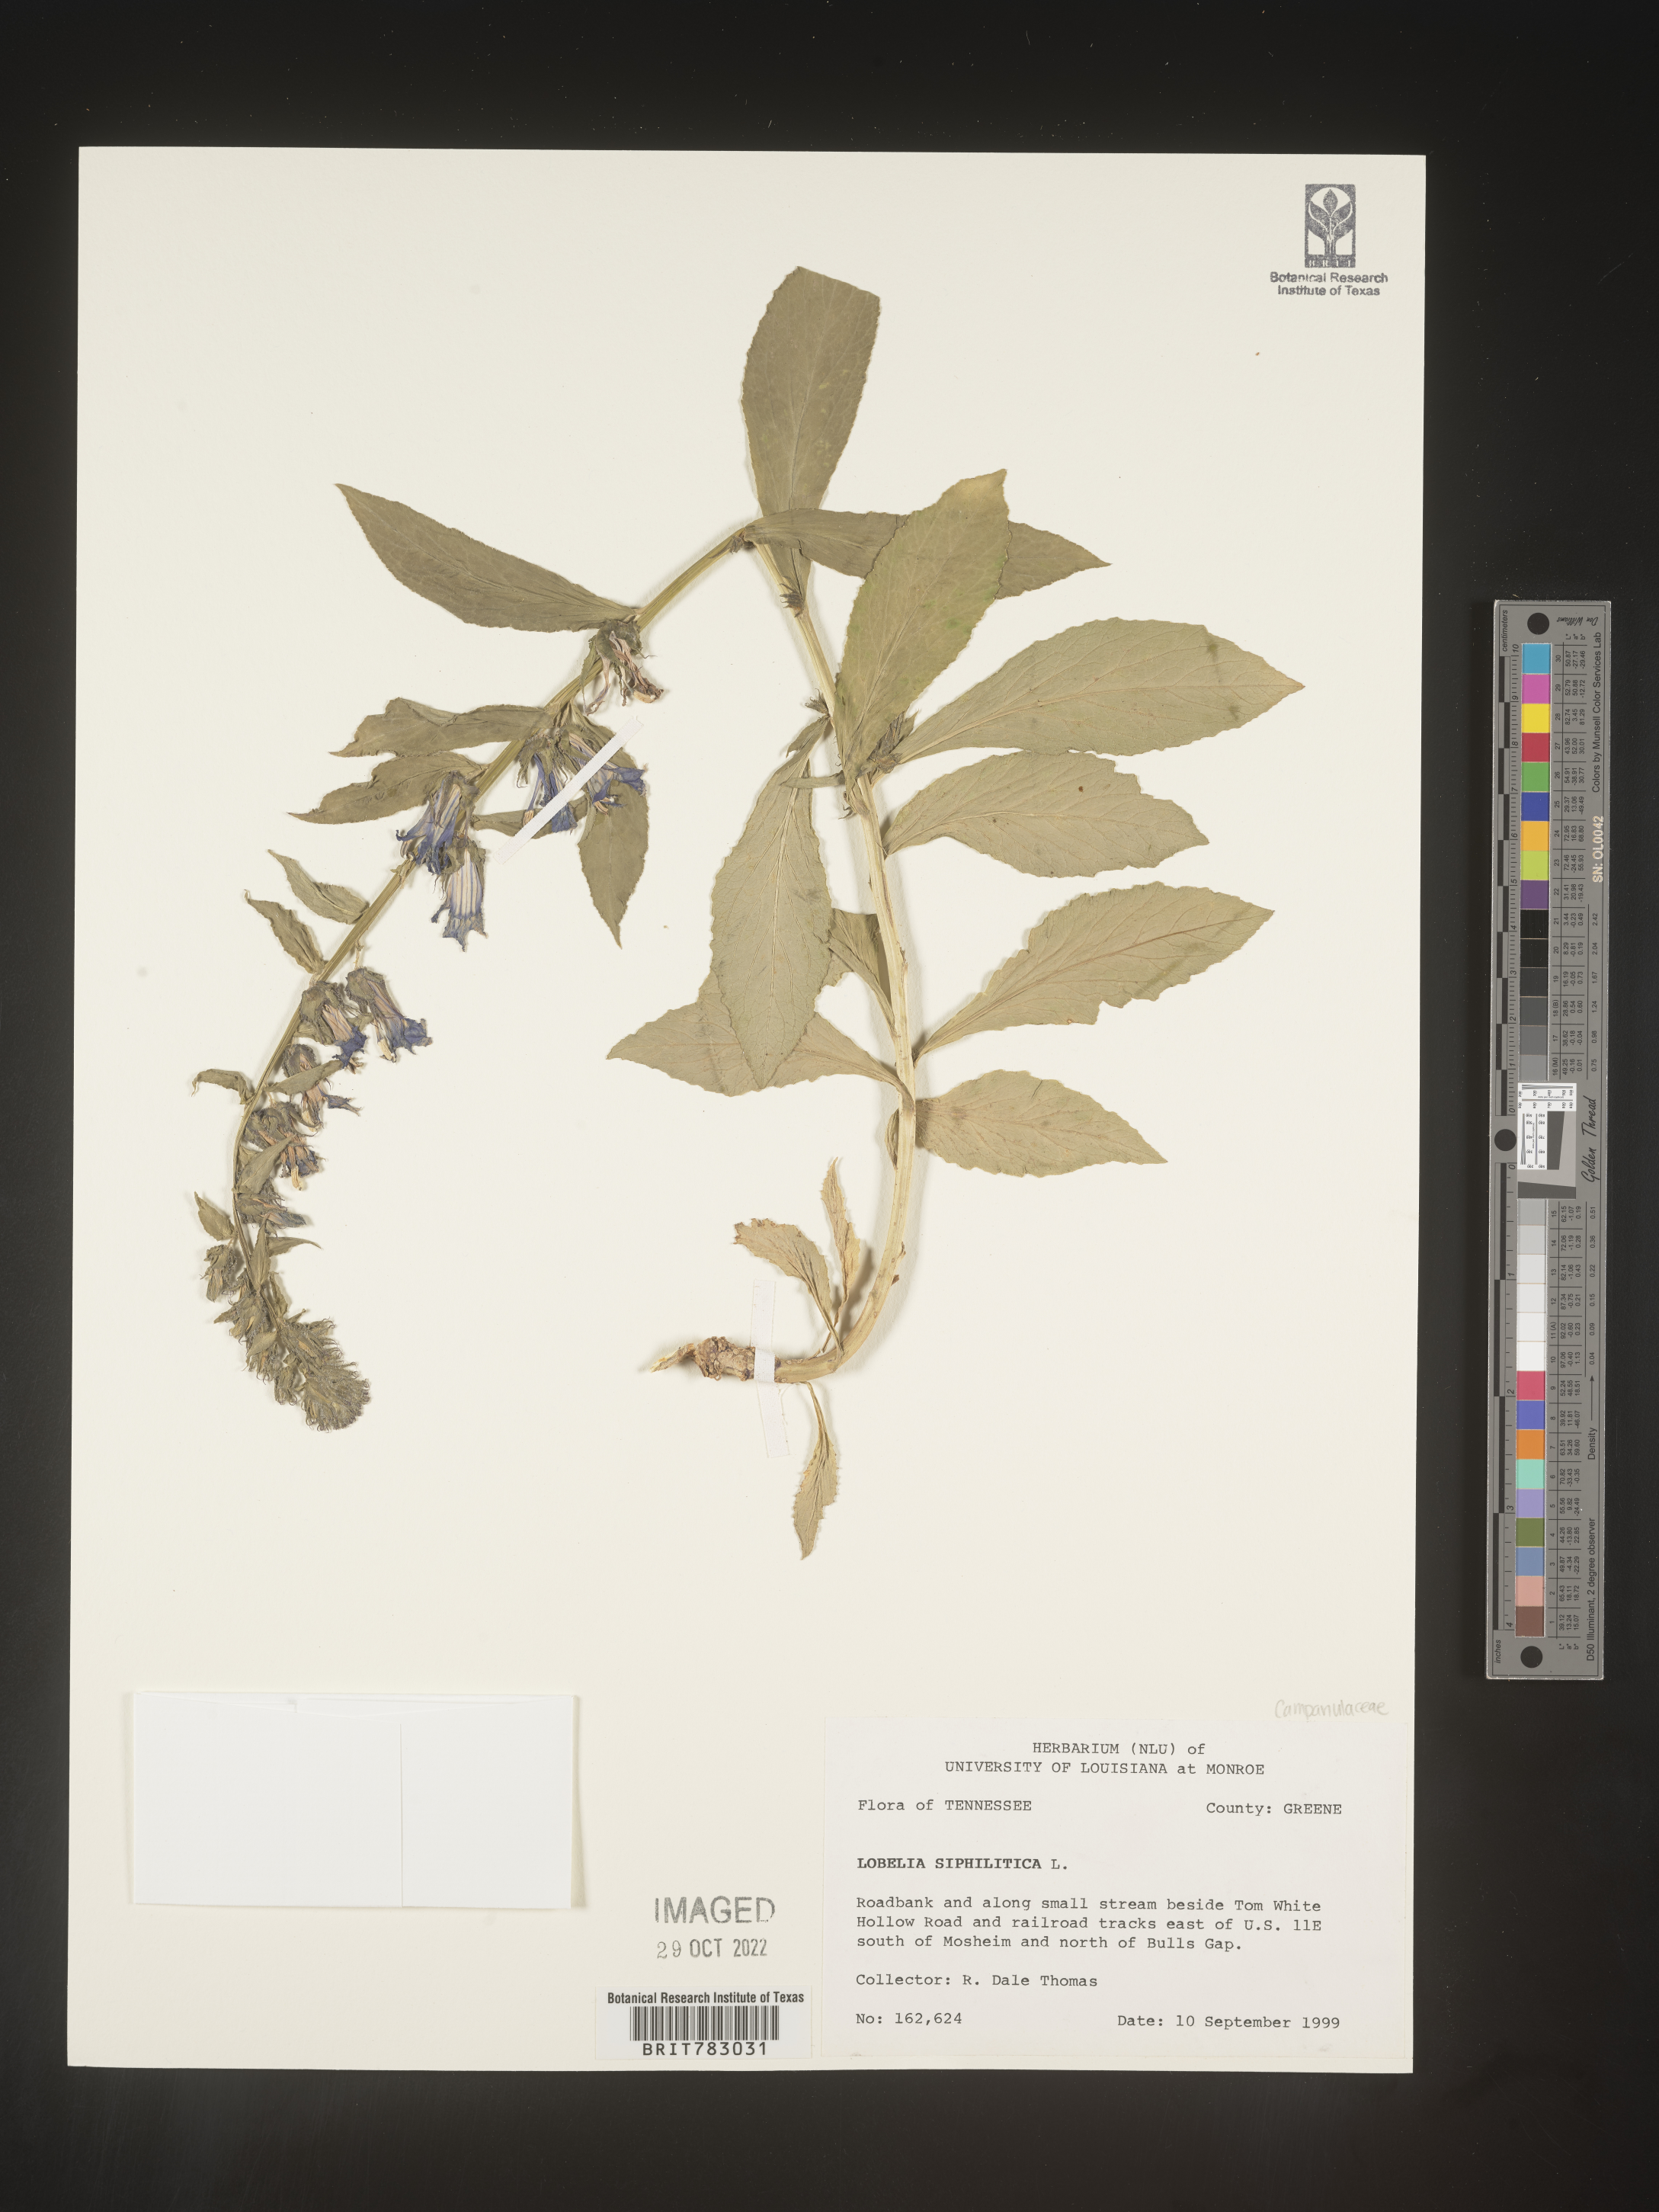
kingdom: Plantae
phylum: Tracheophyta
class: Magnoliopsida
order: Asterales
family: Campanulaceae
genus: Lobelia
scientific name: Lobelia siphilitica
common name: Great lobelia
